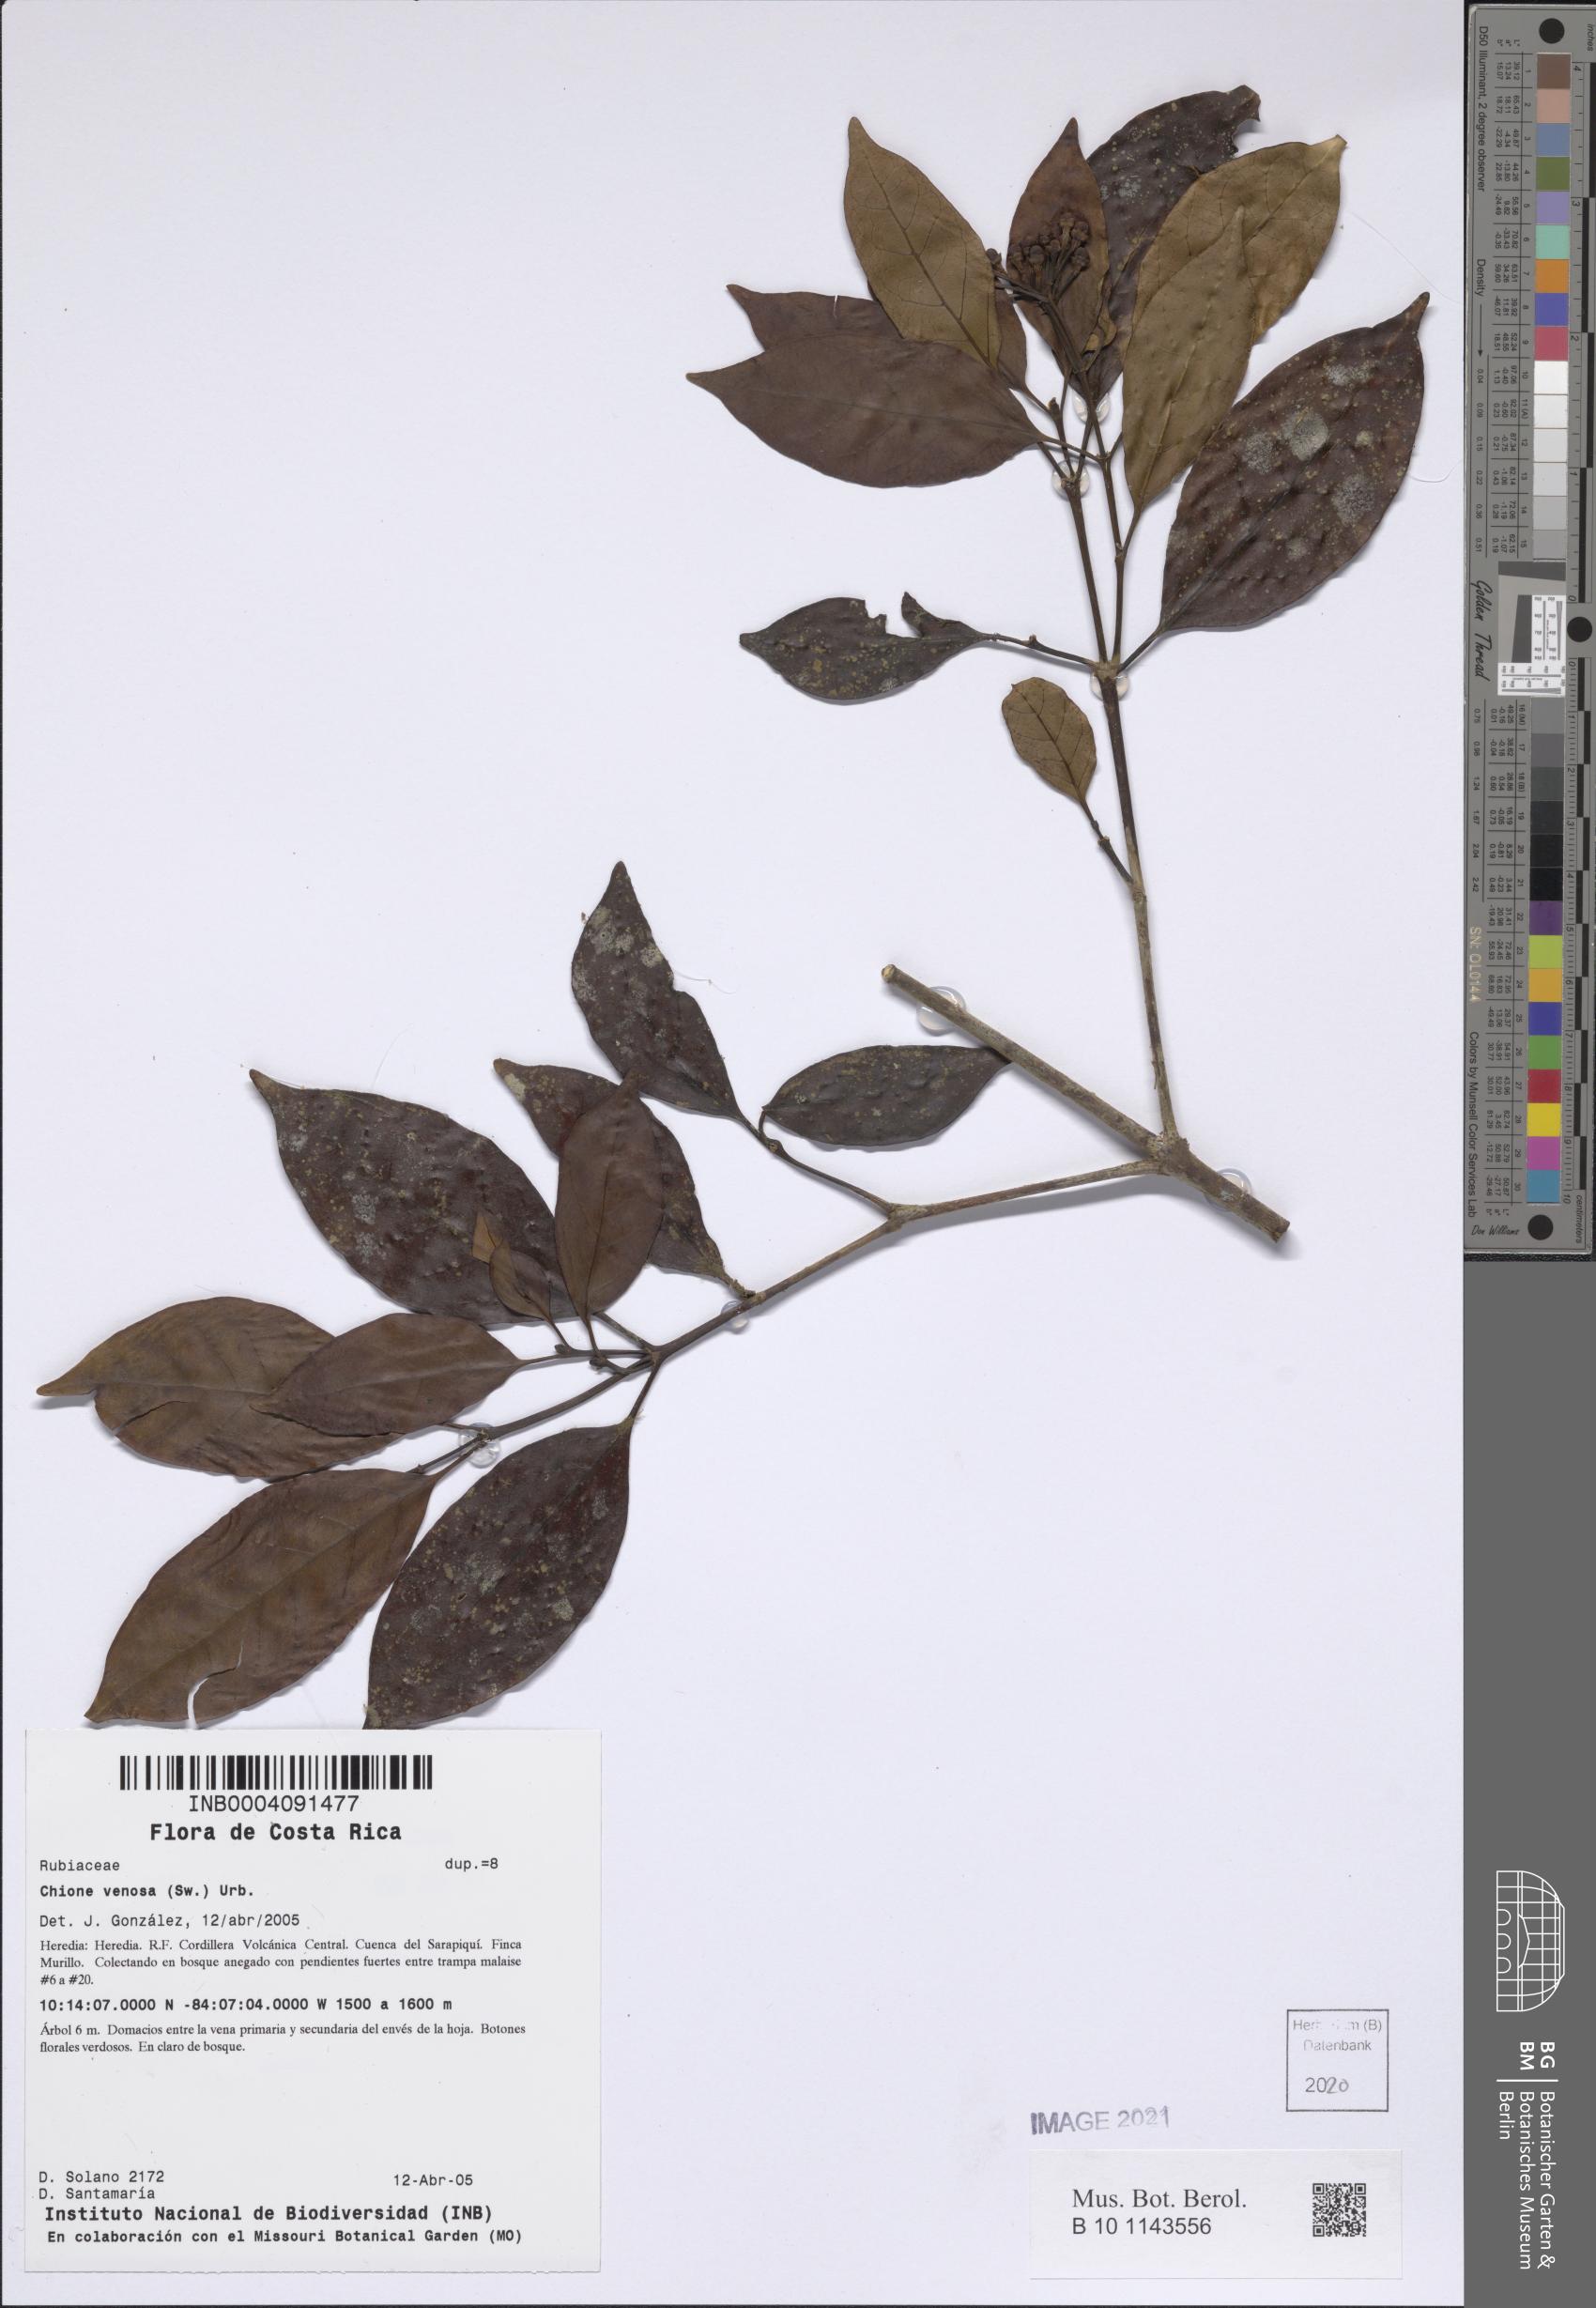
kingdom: Plantae
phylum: Tracheophyta
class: Magnoliopsida
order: Gentianales
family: Rubiaceae
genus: Chione
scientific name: Chione venosa
